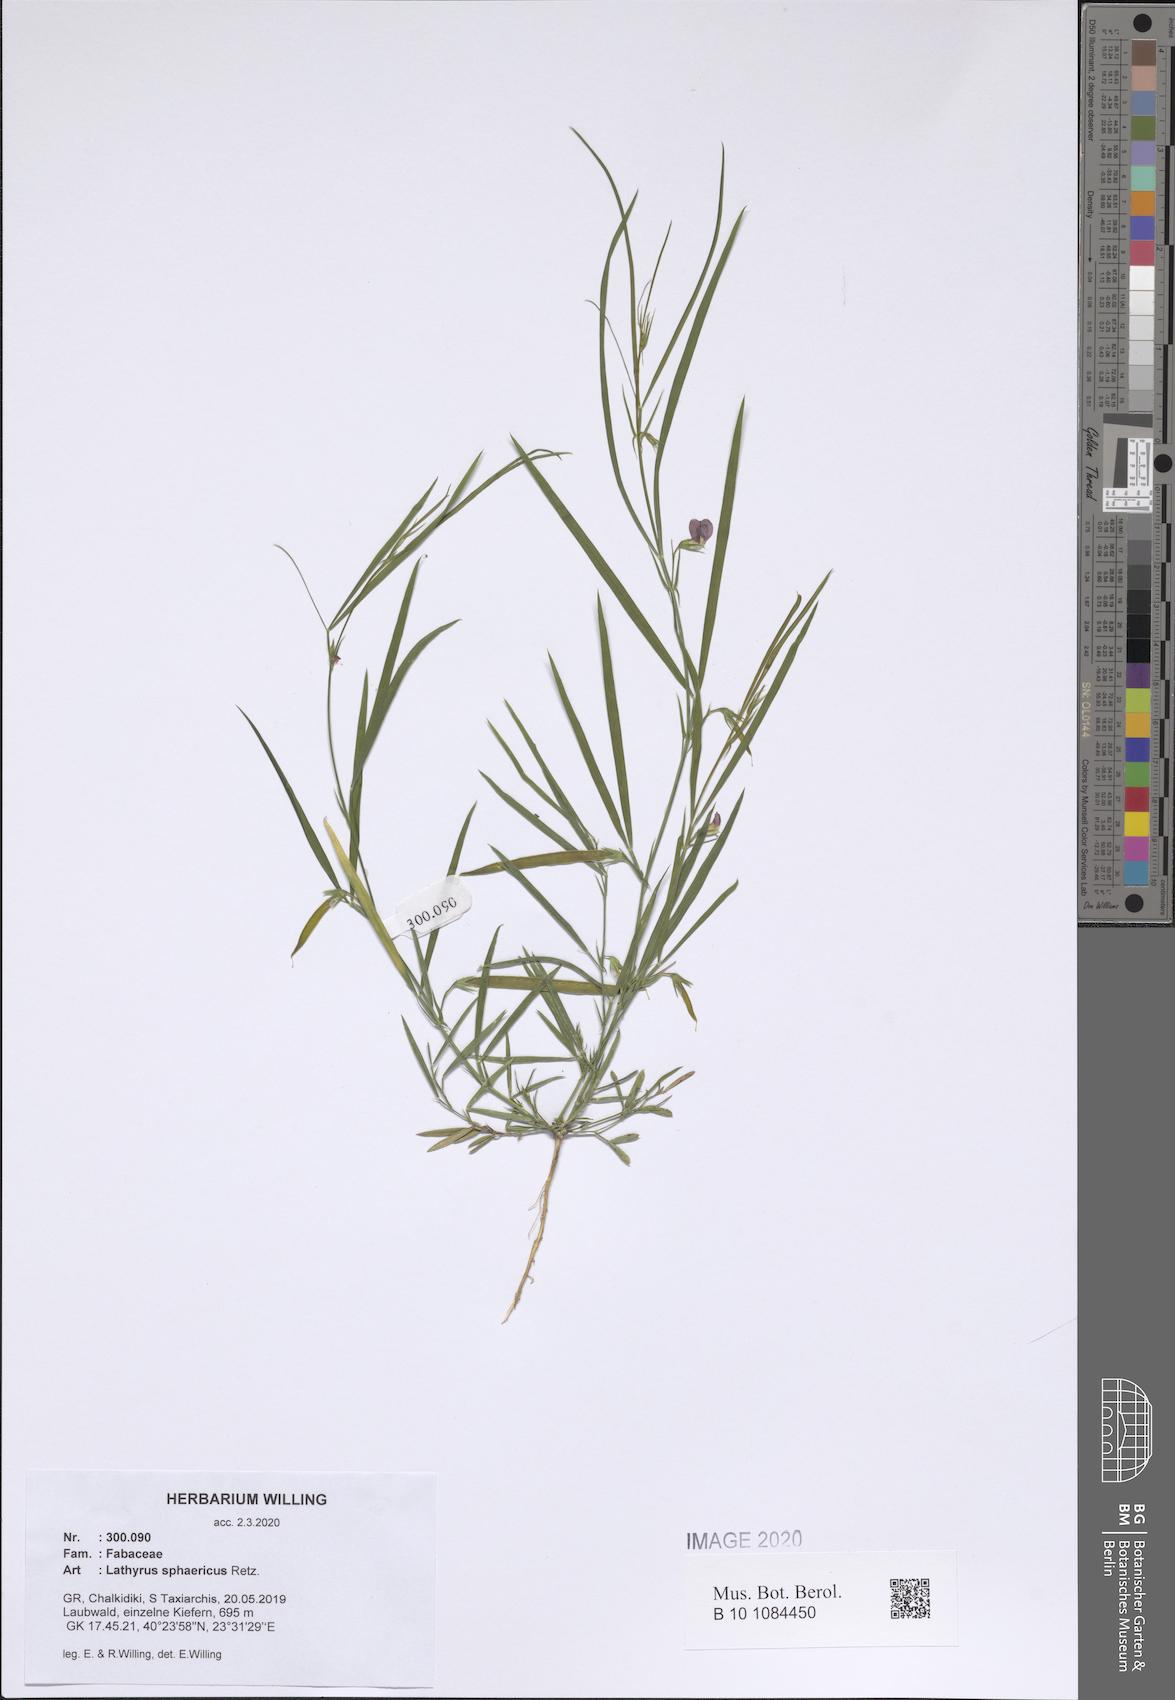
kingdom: Plantae
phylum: Tracheophyta
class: Magnoliopsida
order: Fabales
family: Fabaceae
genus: Lathyrus
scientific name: Lathyrus sphaericus
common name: Grass pea
